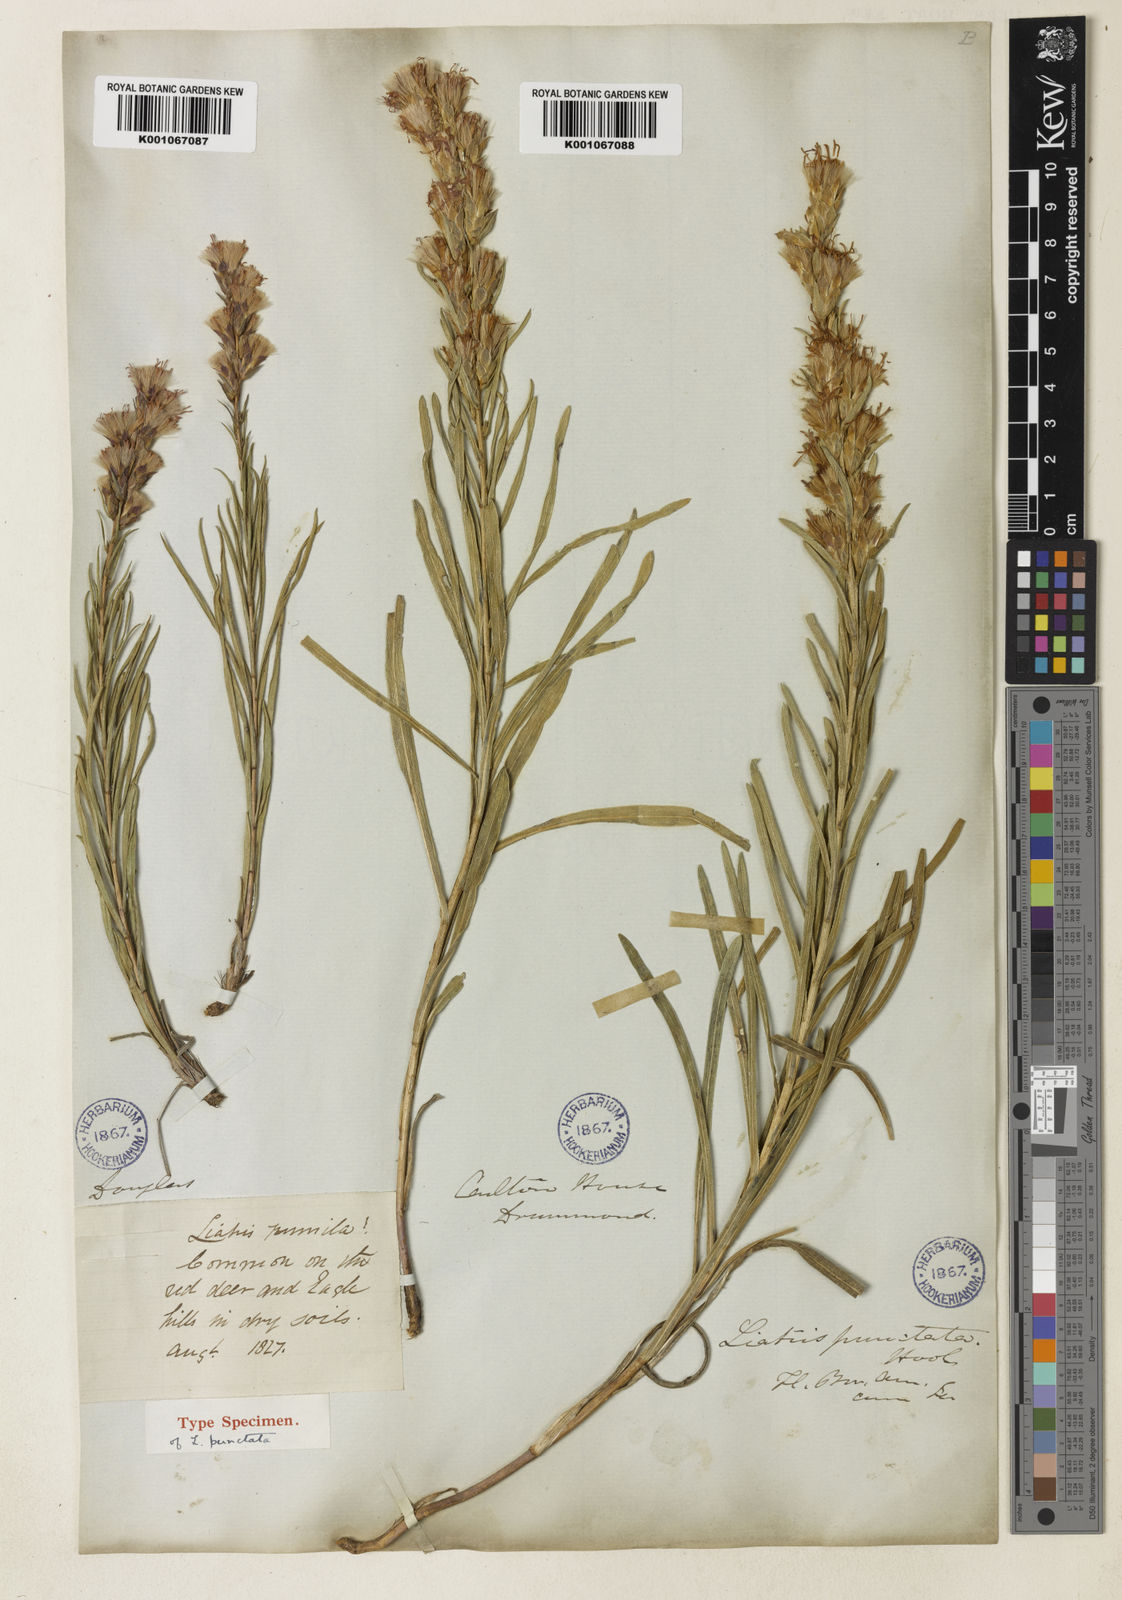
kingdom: Plantae
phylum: Tracheophyta
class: Magnoliopsida
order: Asterales
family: Asteraceae
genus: Liatris
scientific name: Liatris punctata
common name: Dotted gayfeather
